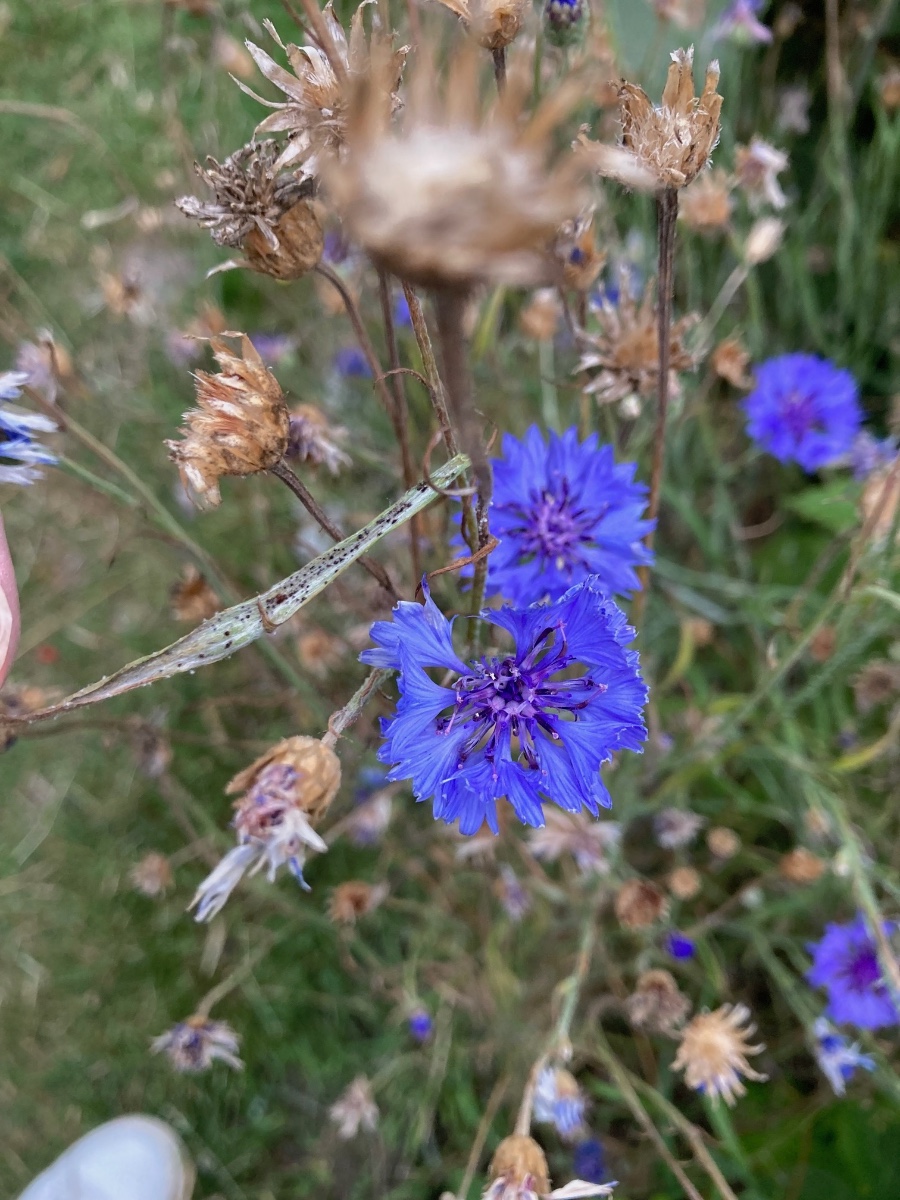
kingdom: Fungi
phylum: Basidiomycota
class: Pucciniomycetes
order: Pucciniales
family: Pucciniaceae
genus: Puccinia
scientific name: Puccinia cyani
